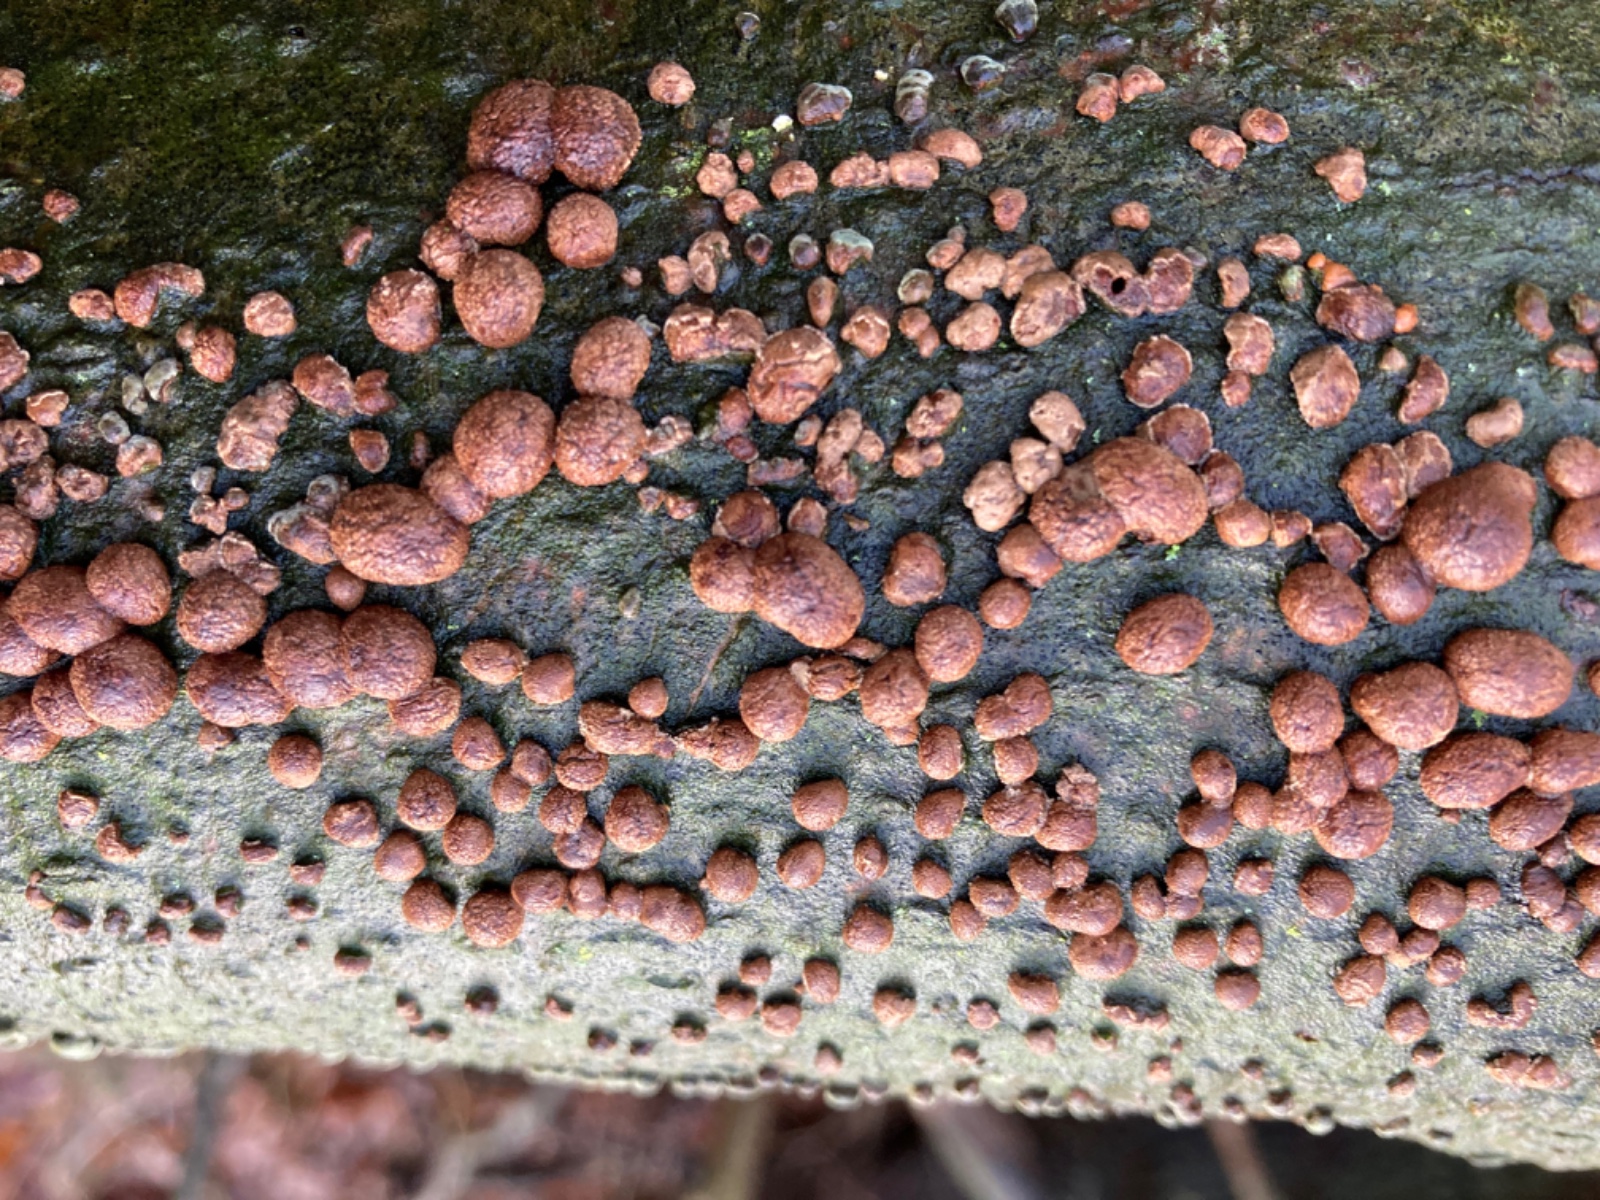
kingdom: Fungi
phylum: Ascomycota
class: Sordariomycetes
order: Xylariales
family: Hypoxylaceae
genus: Hypoxylon
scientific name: Hypoxylon fragiforme
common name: kuljordbær
